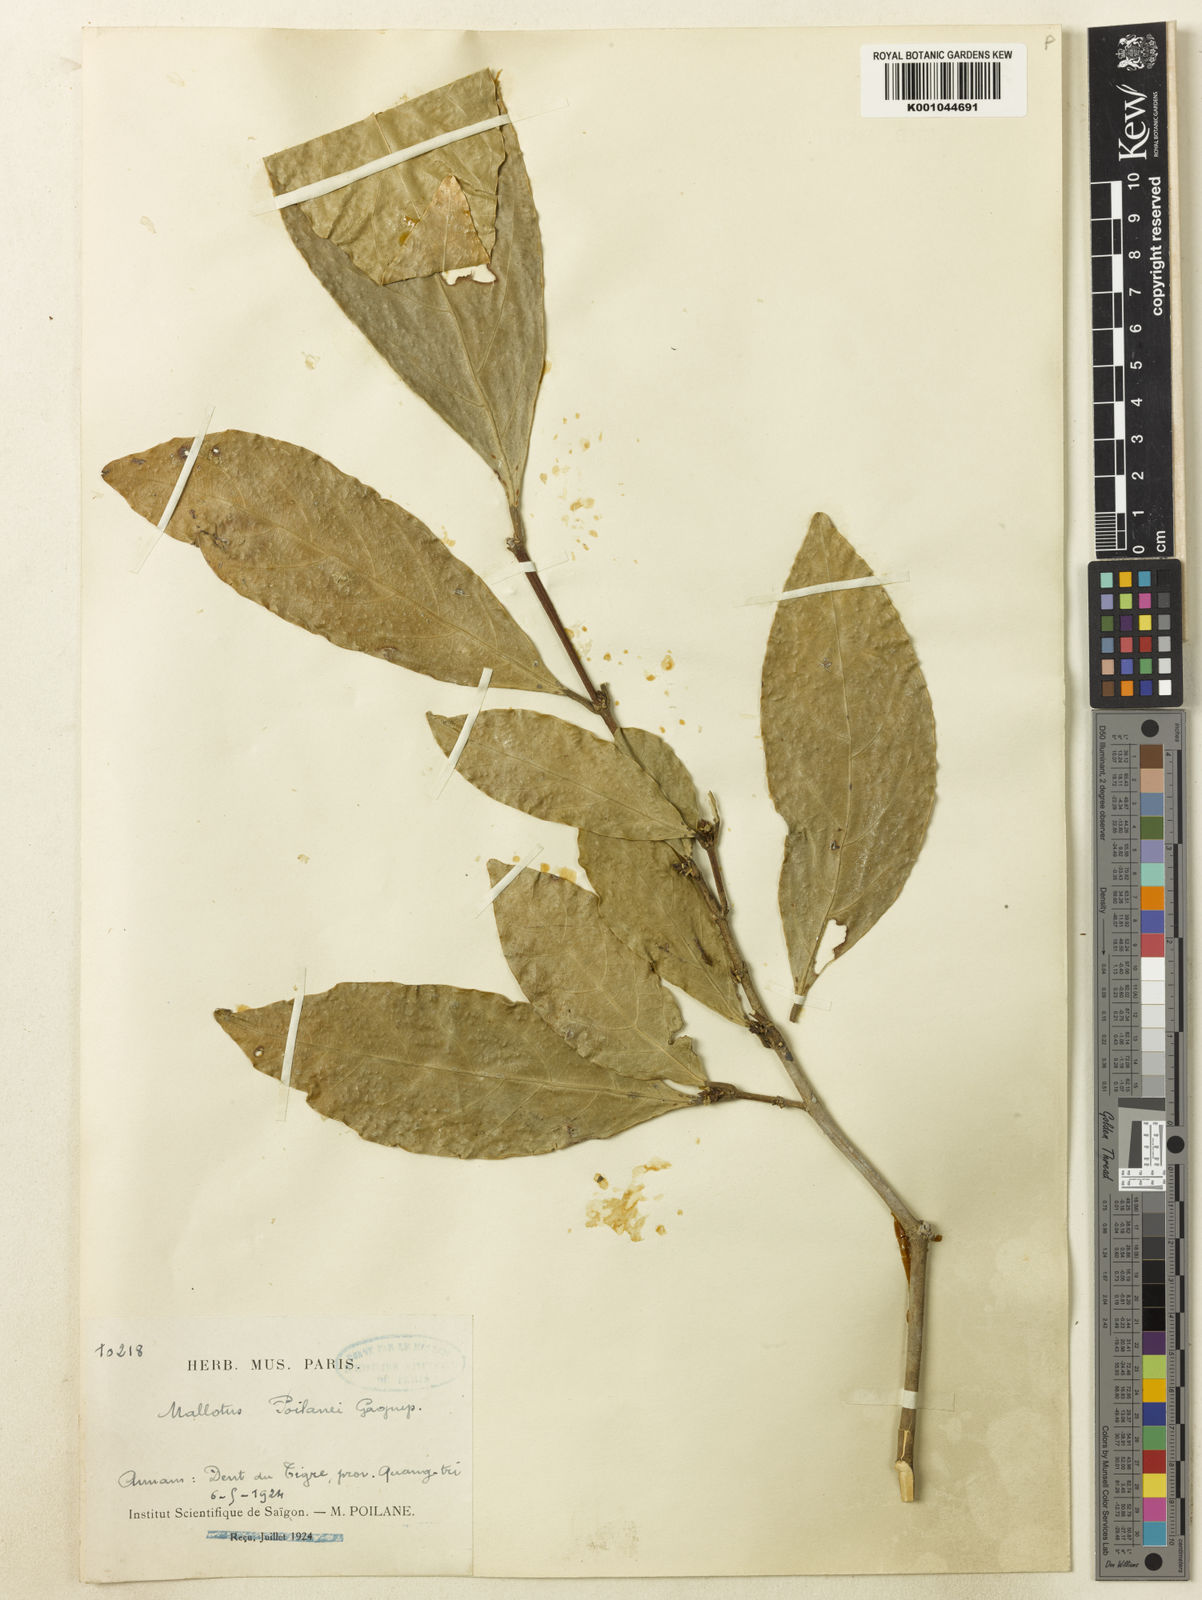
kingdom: Plantae
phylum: Tracheophyta
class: Magnoliopsida
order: Malpighiales
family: Euphorbiaceae
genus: Mallotus
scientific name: Mallotus poilanei
